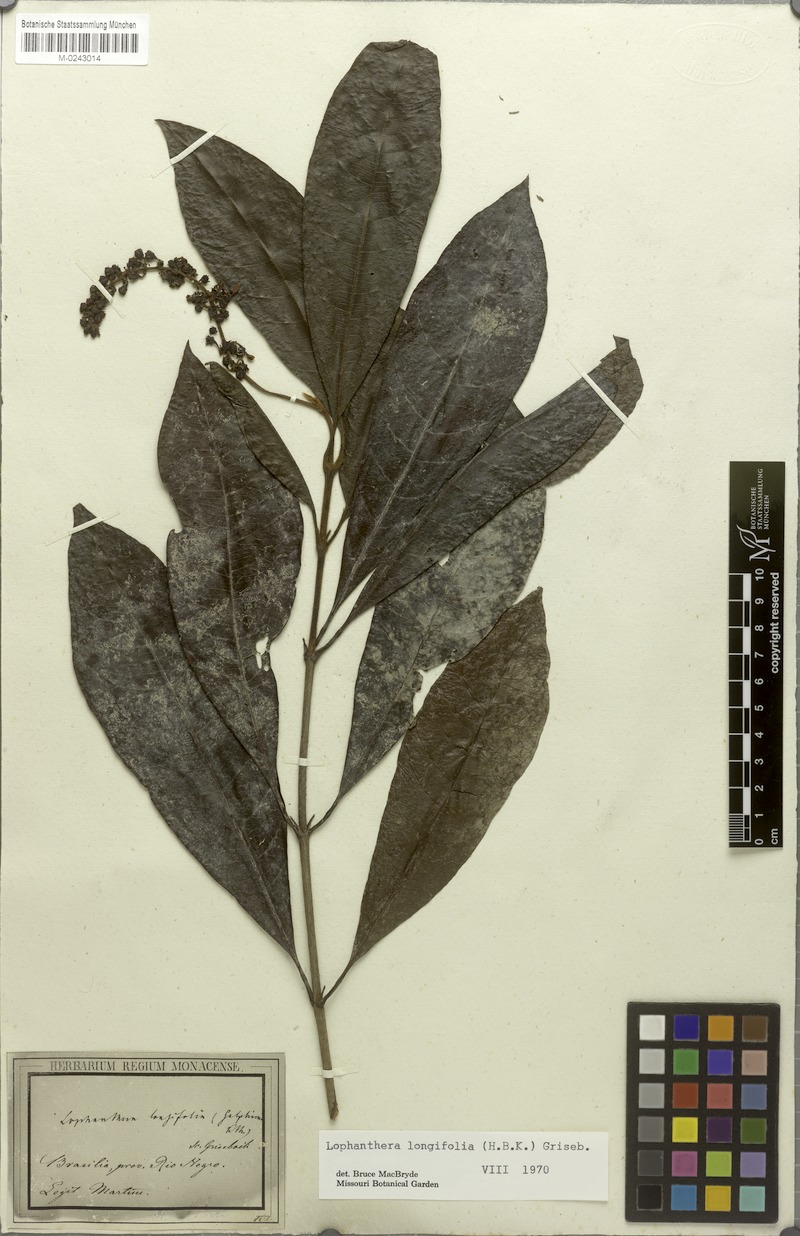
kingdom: Plantae
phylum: Tracheophyta
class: Magnoliopsida
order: Malpighiales
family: Malpighiaceae
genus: Lophanthera
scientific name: Lophanthera longifolia
